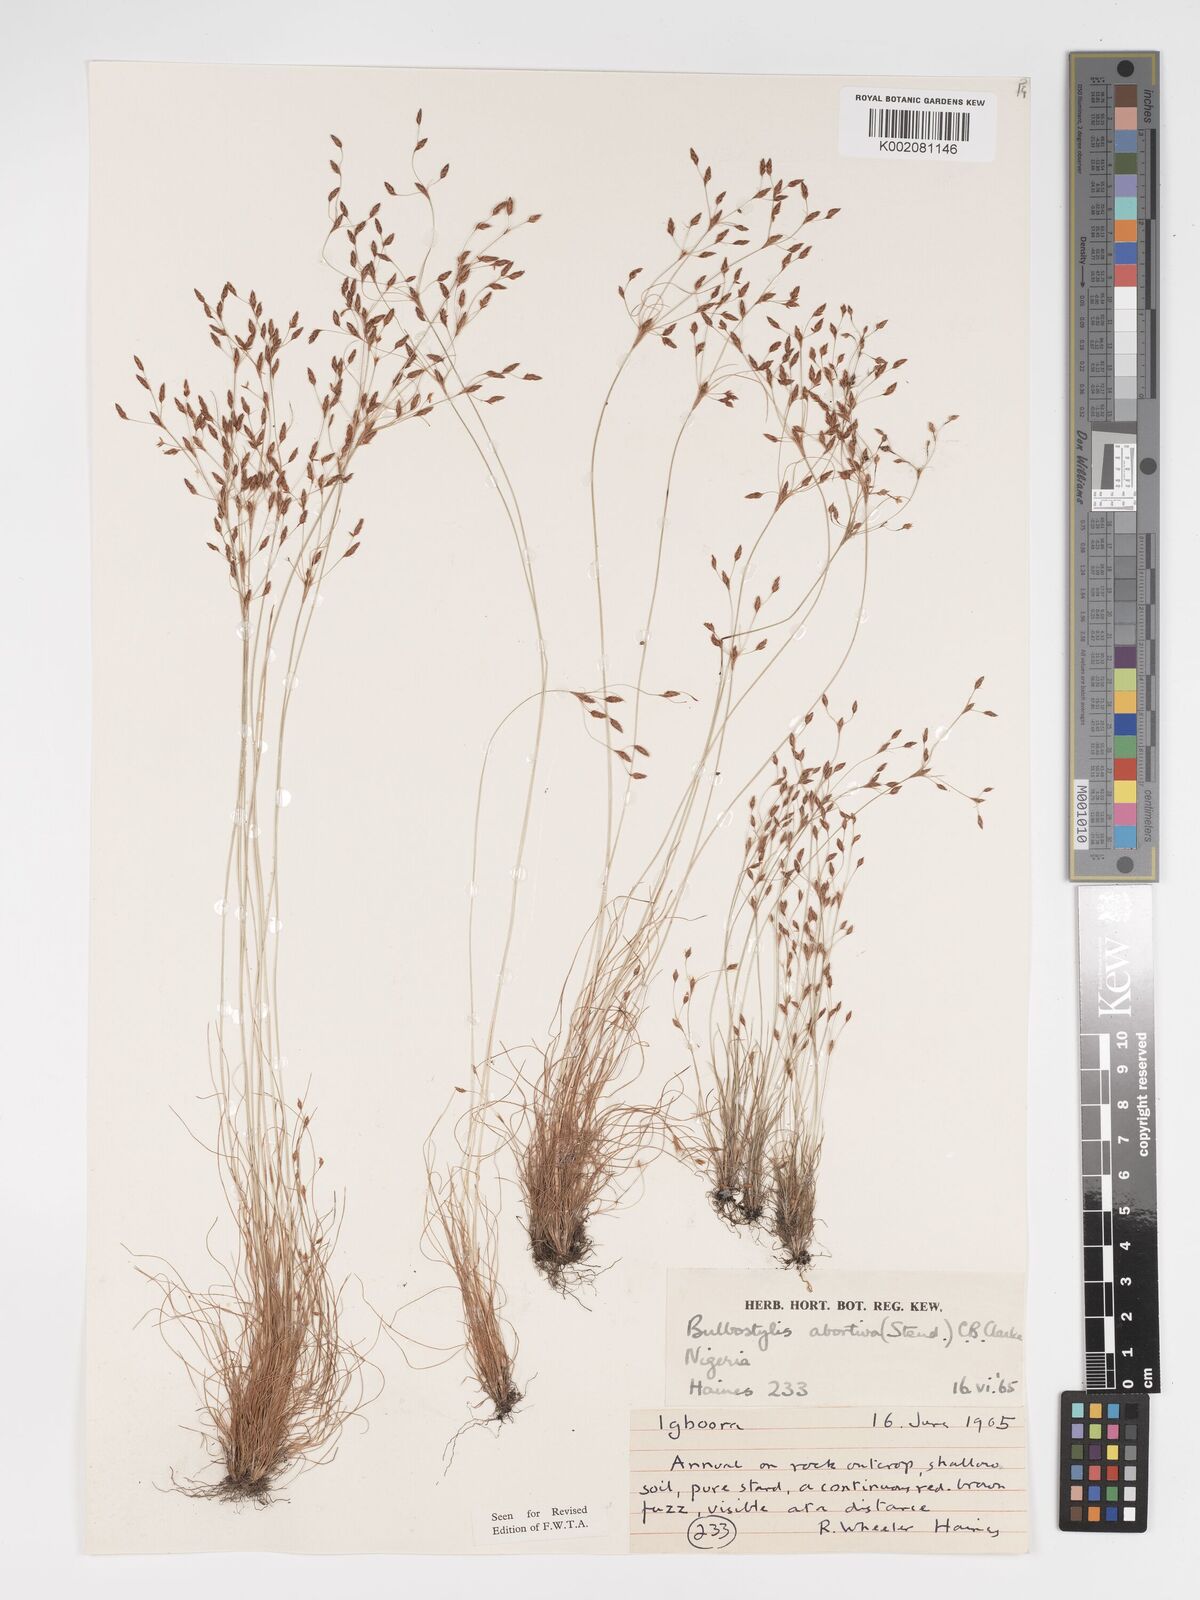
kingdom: Plantae
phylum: Tracheophyta
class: Liliopsida
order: Poales
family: Cyperaceae
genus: Bulbostylis
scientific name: Bulbostylis abortiva
